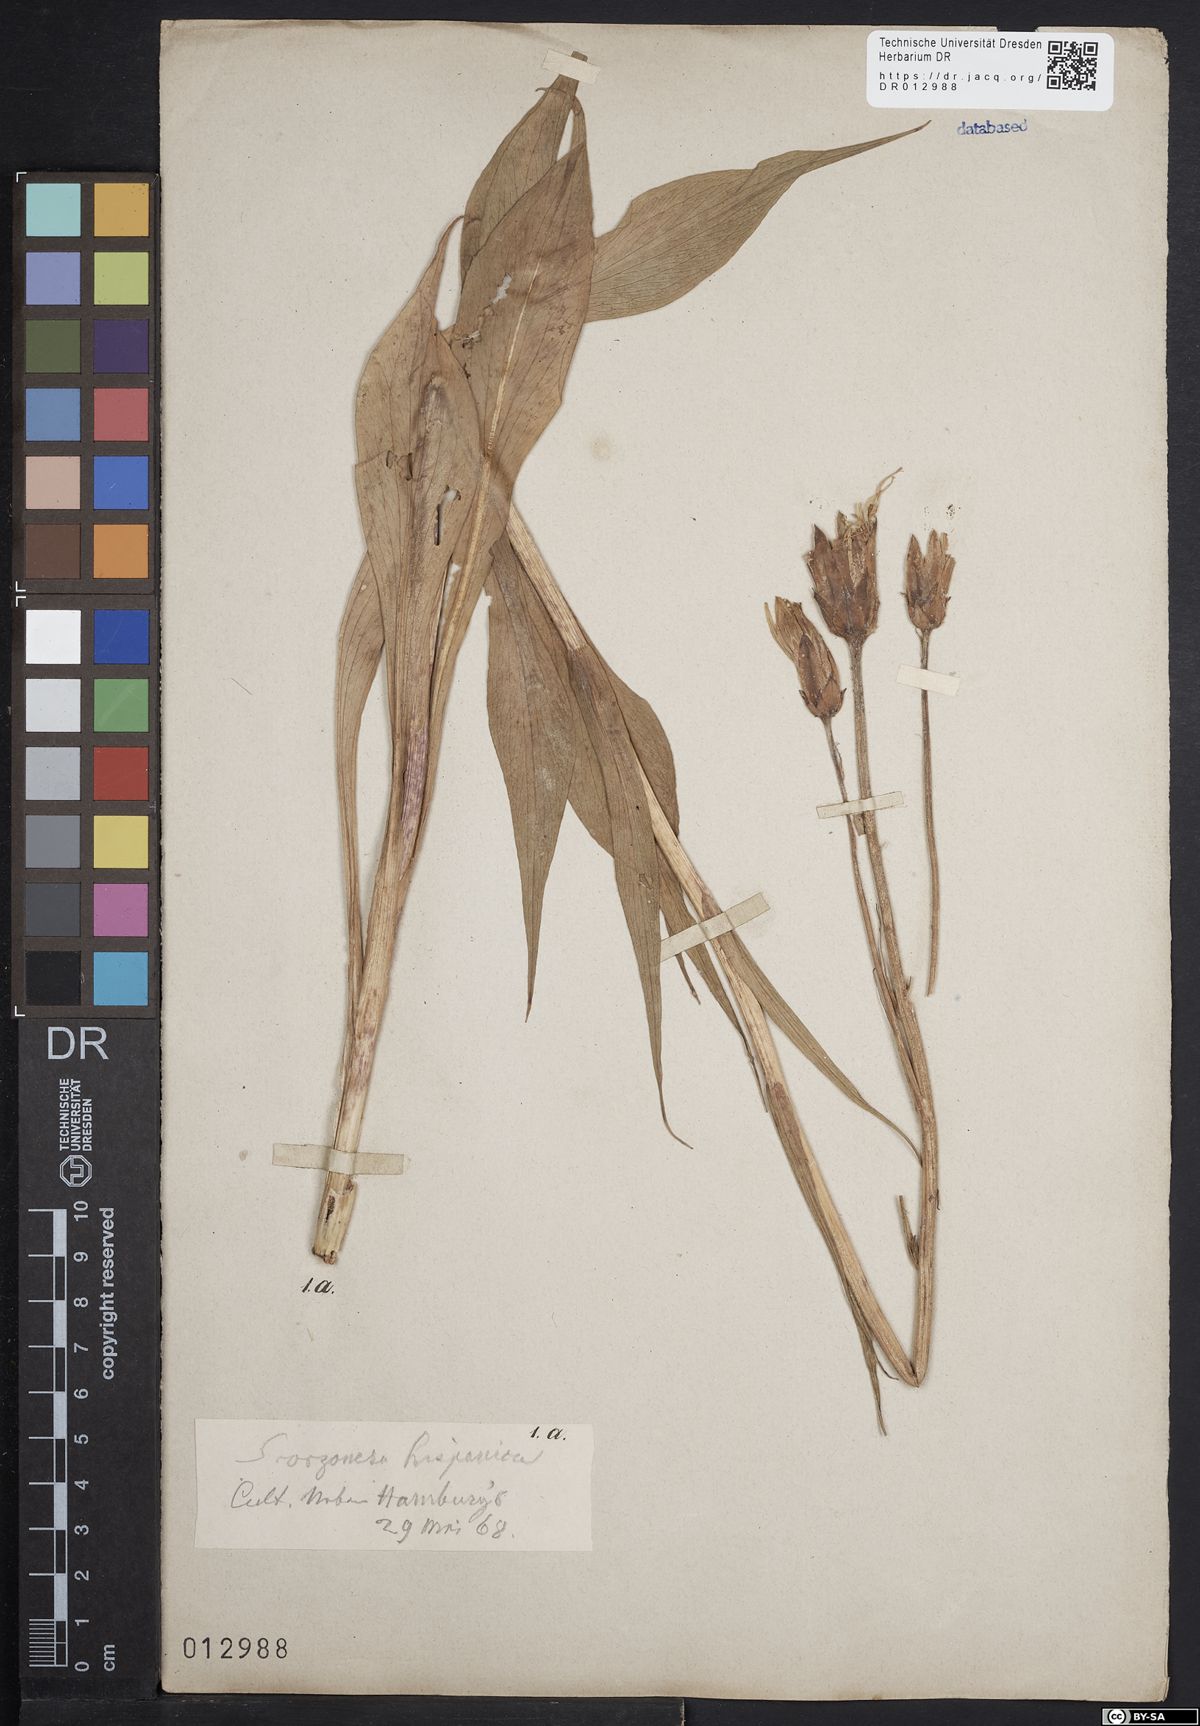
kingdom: Plantae
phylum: Tracheophyta
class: Magnoliopsida
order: Asterales
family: Asteraceae
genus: Scorzonera
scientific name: Scorzonera humilis
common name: Viper's-grass
